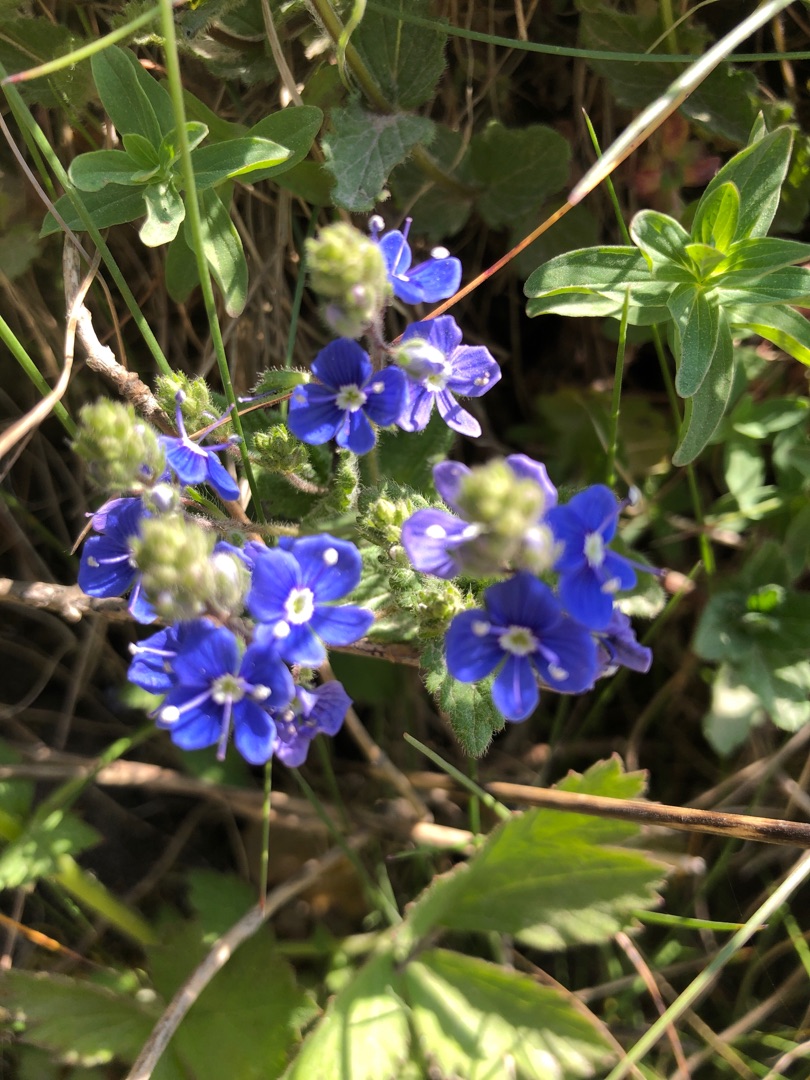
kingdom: Plantae
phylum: Tracheophyta
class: Magnoliopsida
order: Lamiales
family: Plantaginaceae
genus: Veronica
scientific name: Veronica chamaedrys
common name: Tveskægget ærenpris
